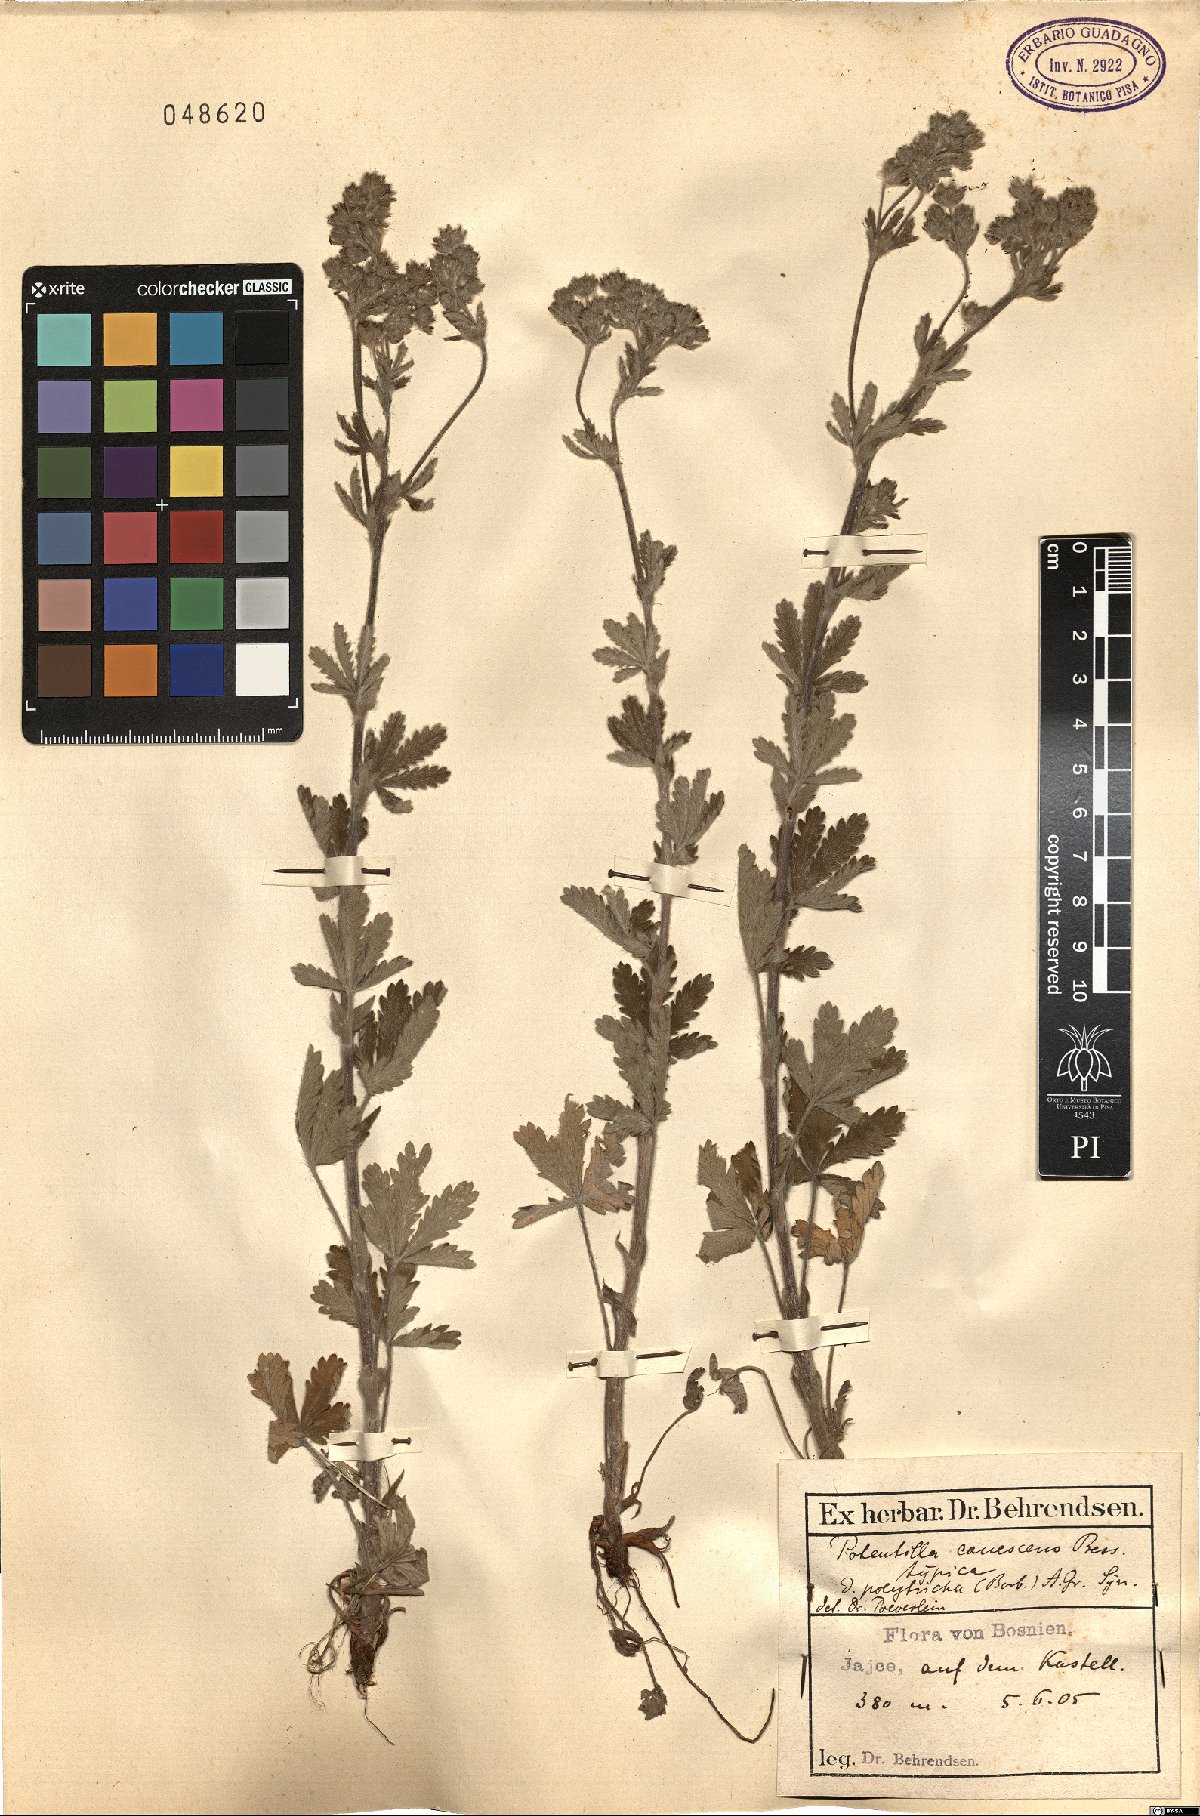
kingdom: Plantae
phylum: Tracheophyta
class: Magnoliopsida
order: Rosales
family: Rosaceae
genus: Potentilla
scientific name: Potentilla inclinata
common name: Grey cinquefoil
